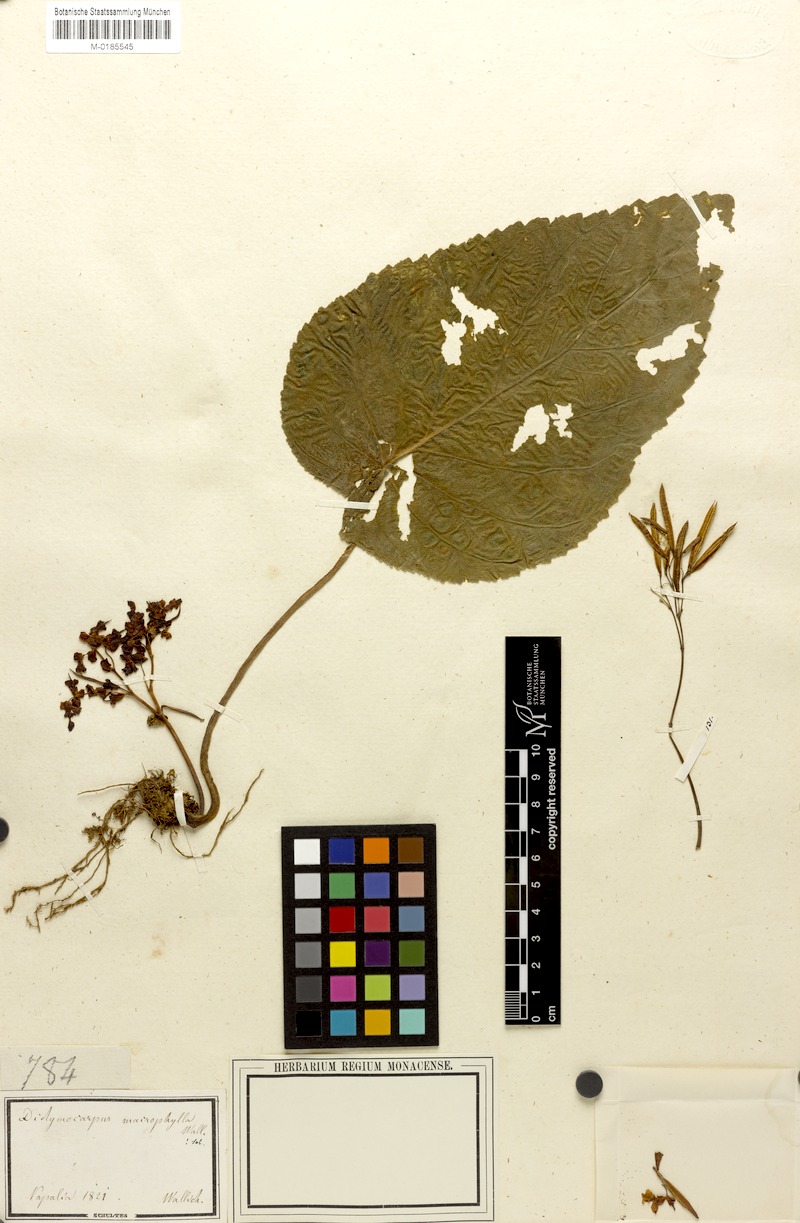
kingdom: Plantae
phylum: Tracheophyta
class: Magnoliopsida
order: Lamiales
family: Gesneriaceae
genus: Didymocarpus
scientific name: Didymocarpus macrophyllus
